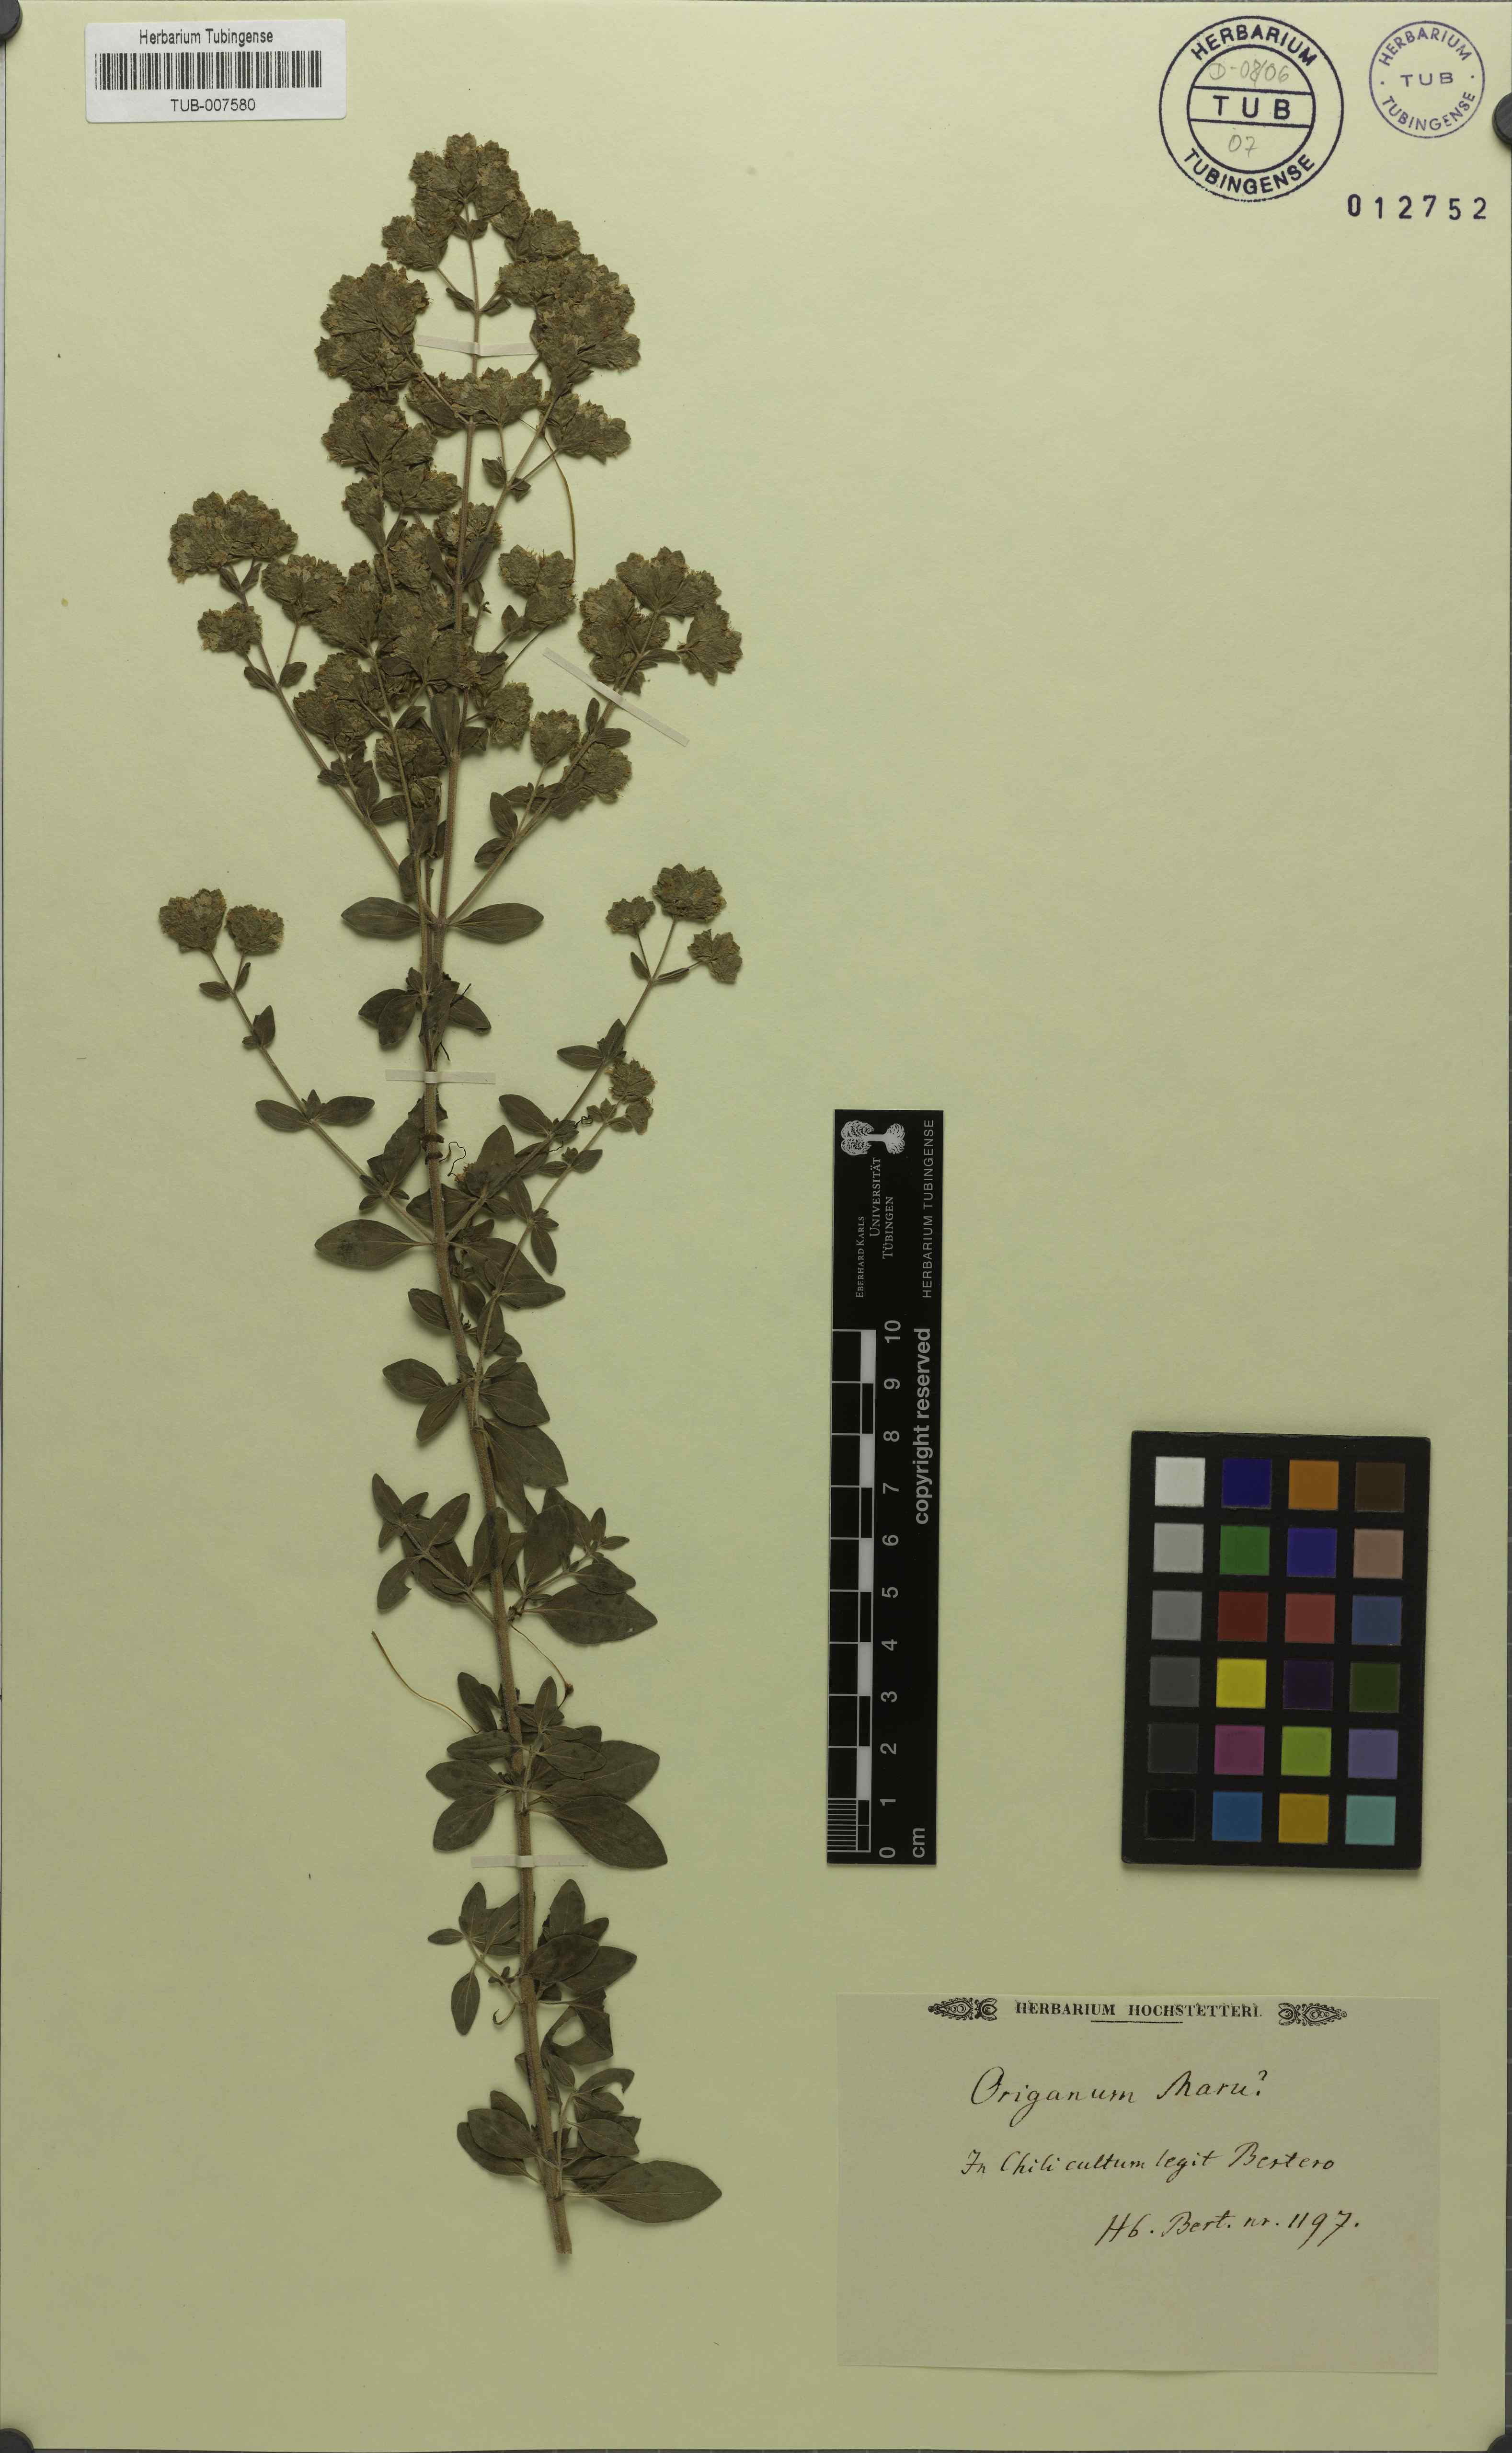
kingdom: Plantae
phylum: Tracheophyta
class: Magnoliopsida
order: Lamiales
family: Lamiaceae
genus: Origanum
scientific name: Origanum syriacum
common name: Biblical-hyssop
